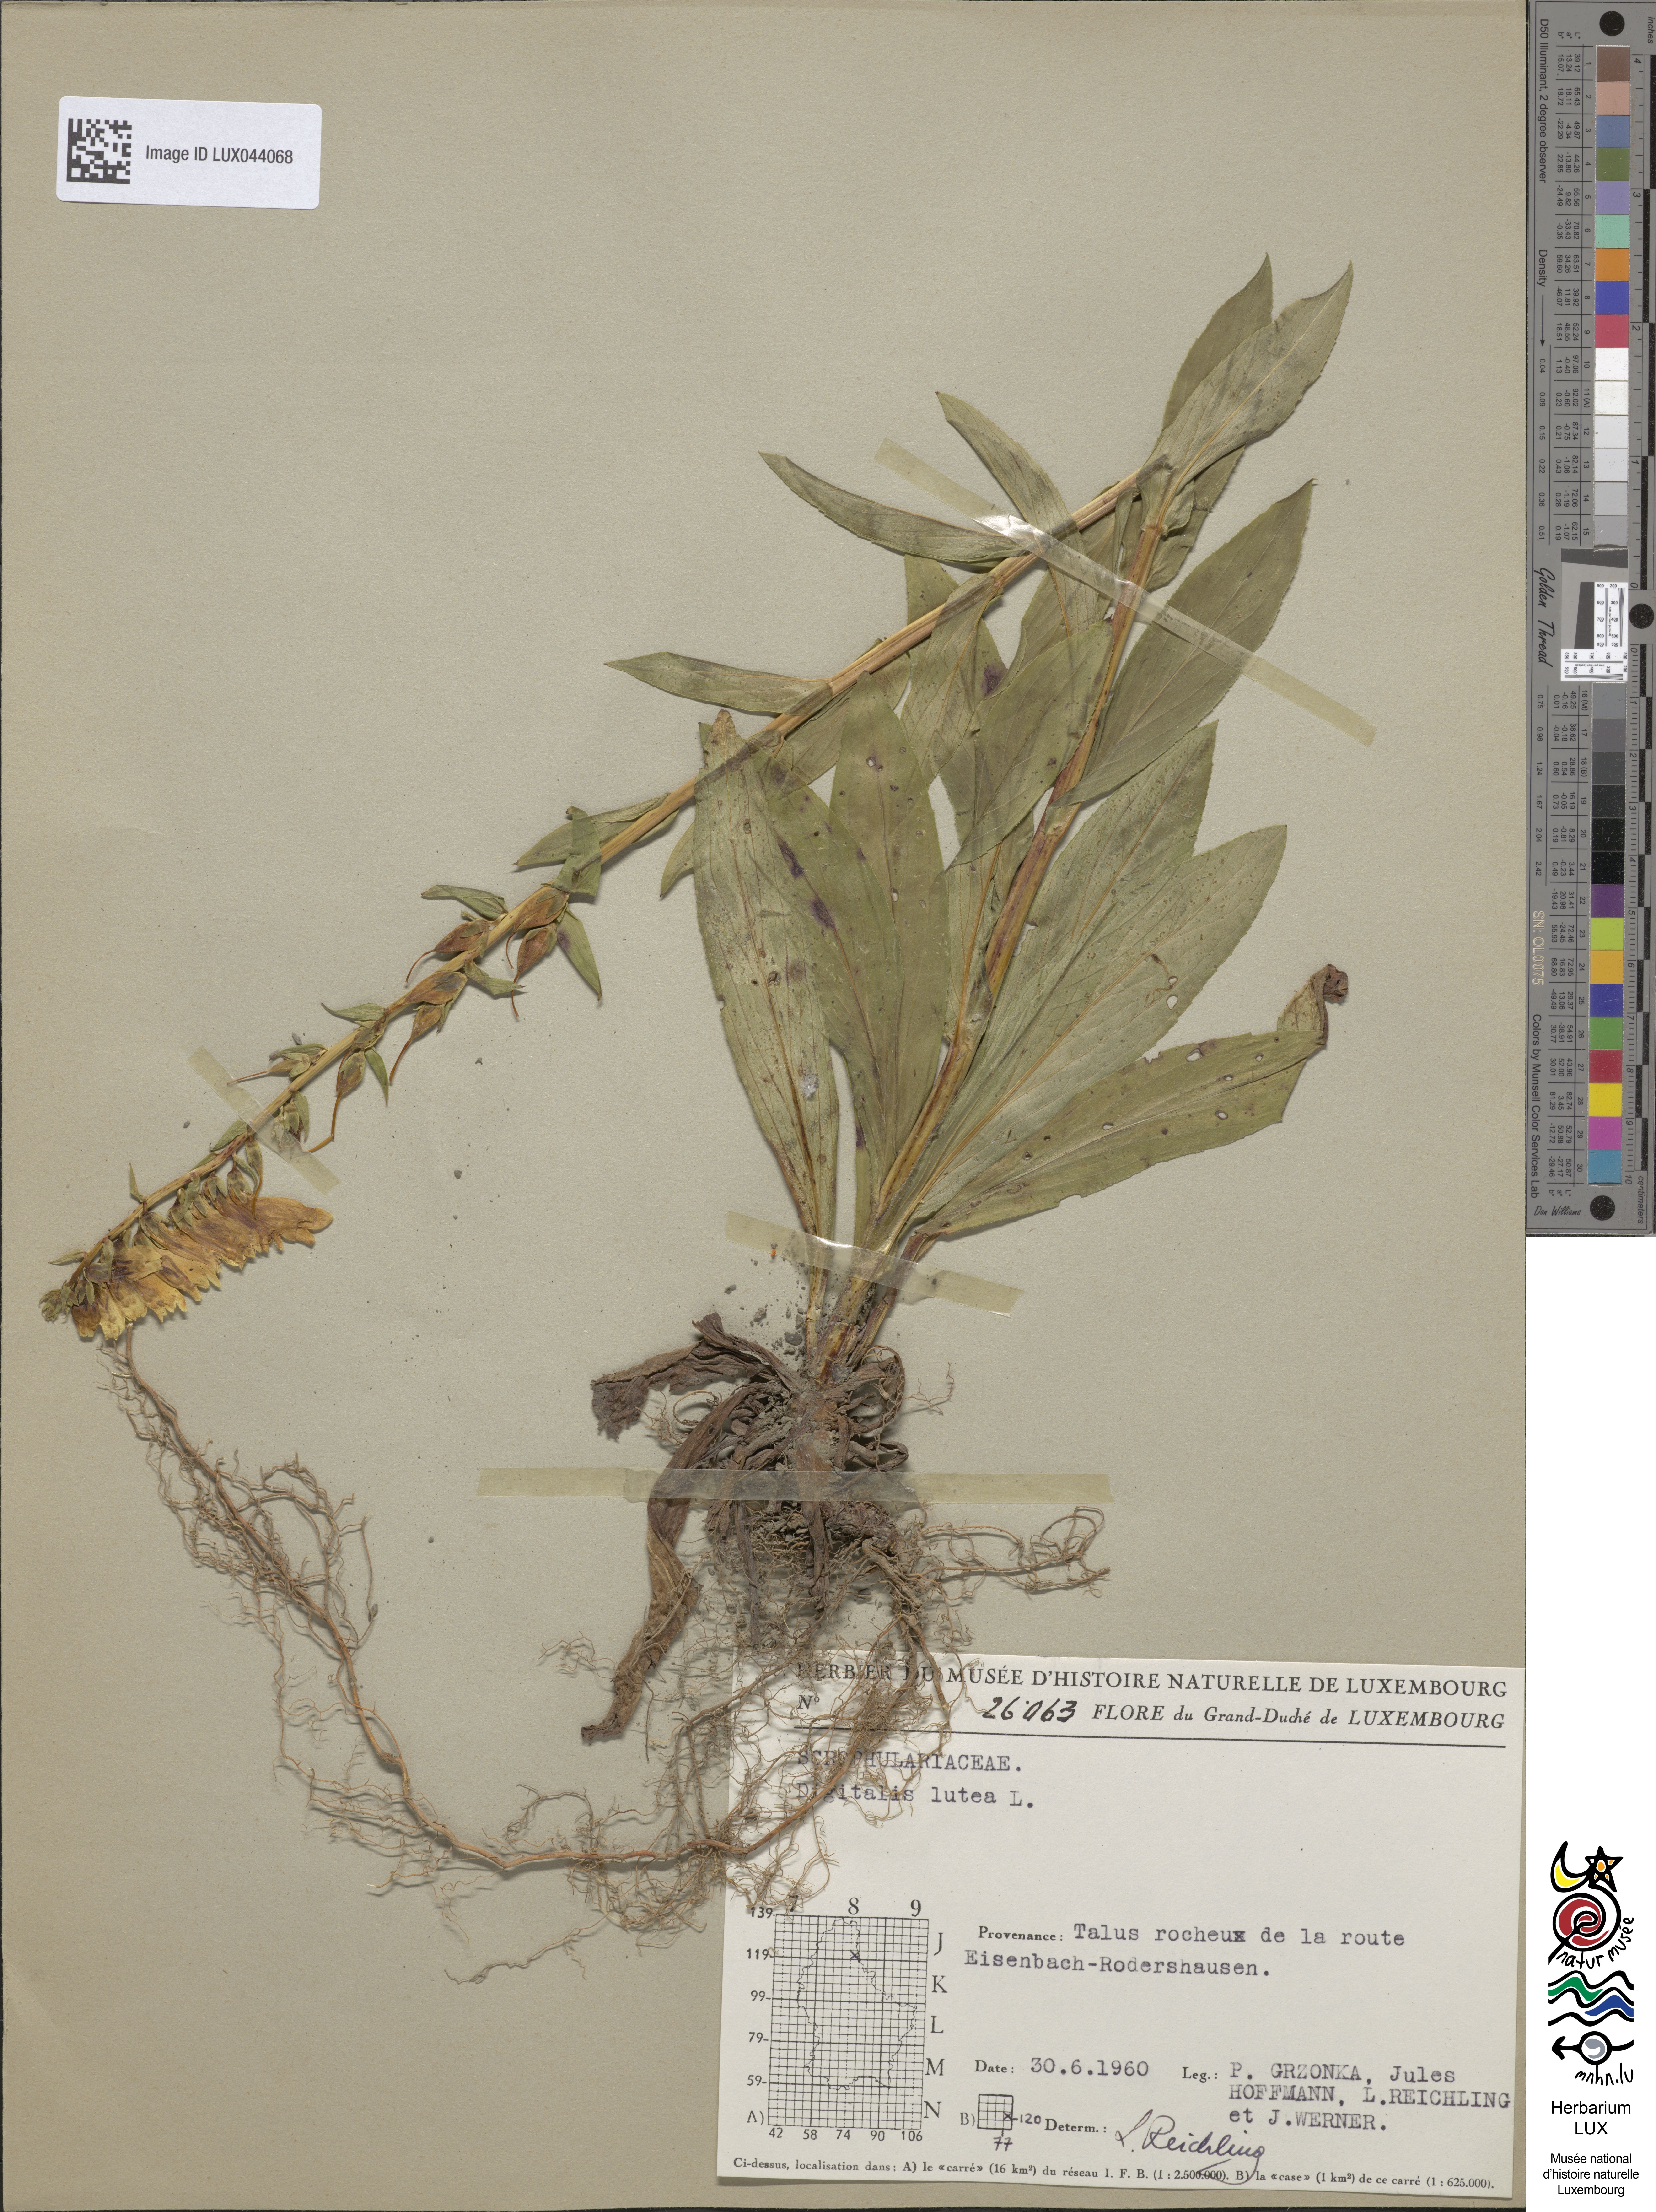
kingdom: Plantae
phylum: Tracheophyta
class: Magnoliopsida
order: Lamiales
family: Plantaginaceae
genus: Digitalis
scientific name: Digitalis lutea
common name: Straw foxglove
